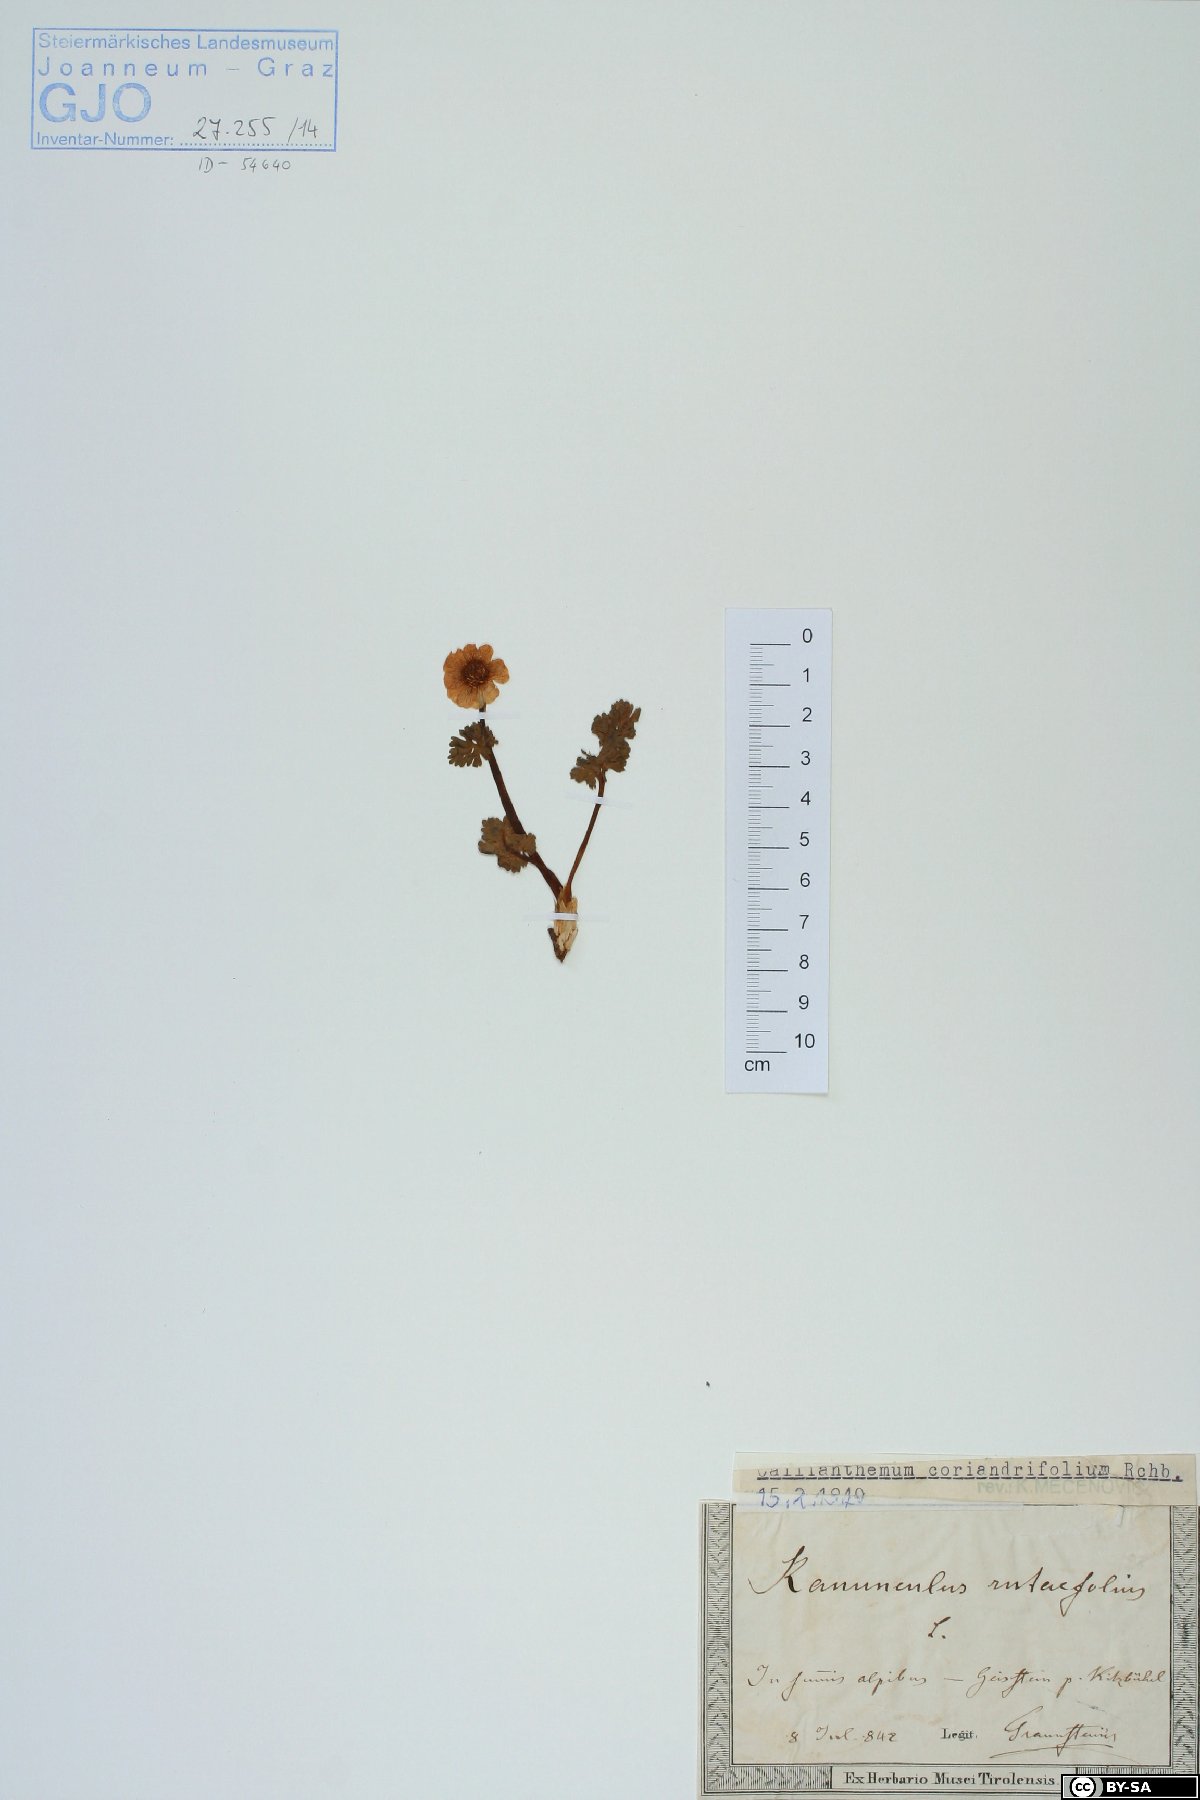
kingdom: Plantae
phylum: Tracheophyta
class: Magnoliopsida
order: Ranunculales
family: Ranunculaceae
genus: Callianthemum
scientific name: Callianthemum coriandrifolium
